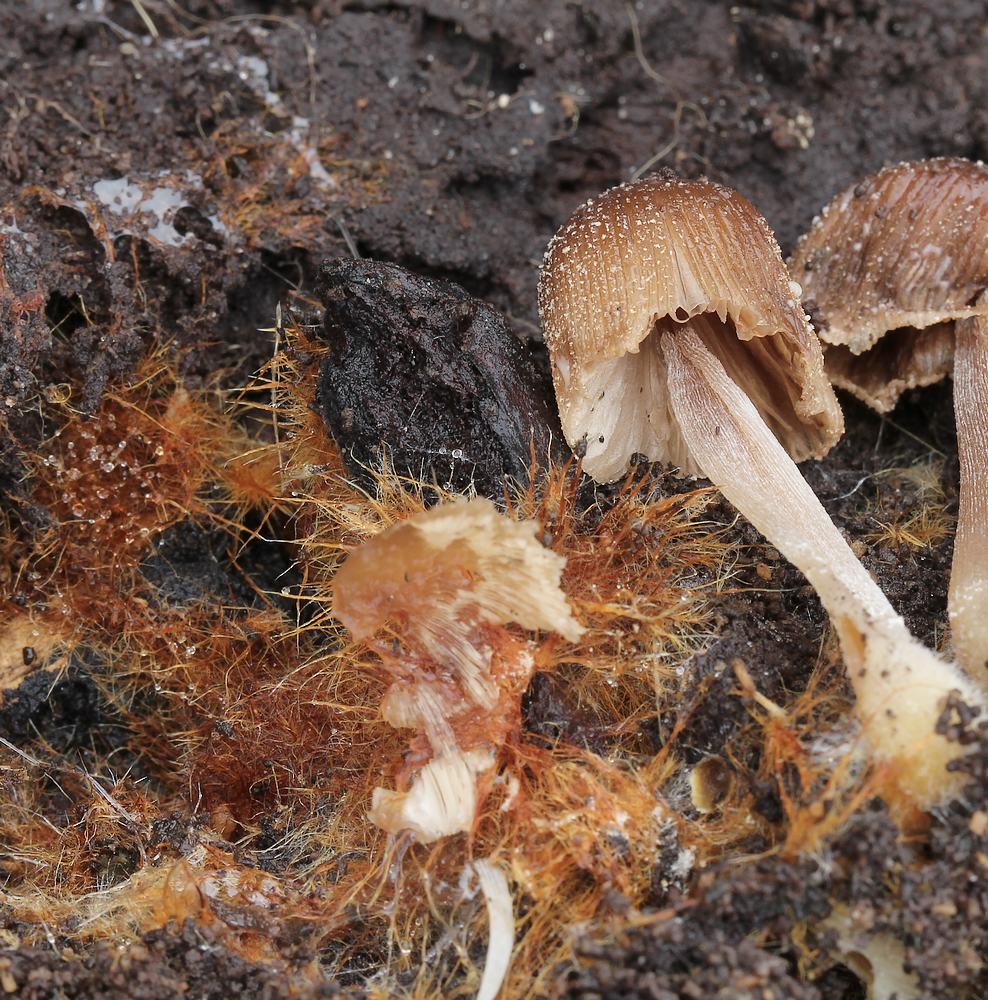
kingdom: Fungi
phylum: Basidiomycota
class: Agaricomycetes
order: Agaricales
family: Psathyrellaceae
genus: Coprinellus
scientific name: Coprinellus
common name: blækhat
